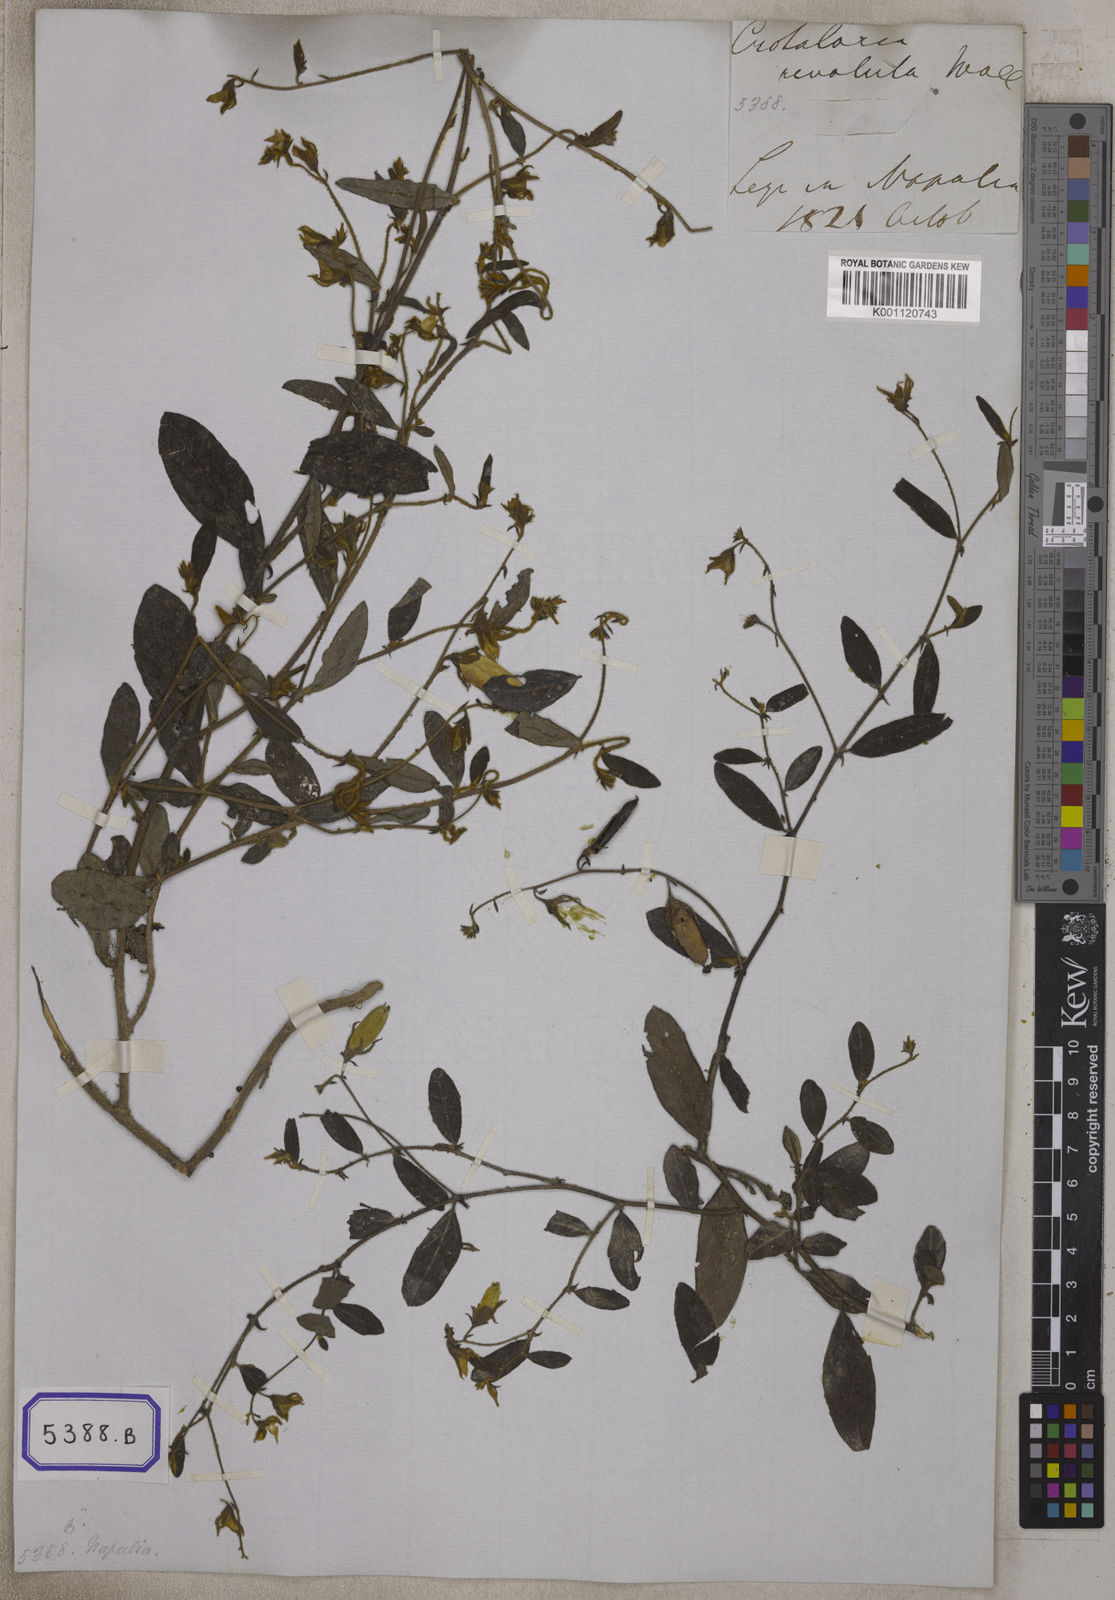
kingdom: Plantae
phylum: Tracheophyta
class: Magnoliopsida
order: Fabales
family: Fabaceae
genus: Crotalaria
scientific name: Crotalaria prostrata
